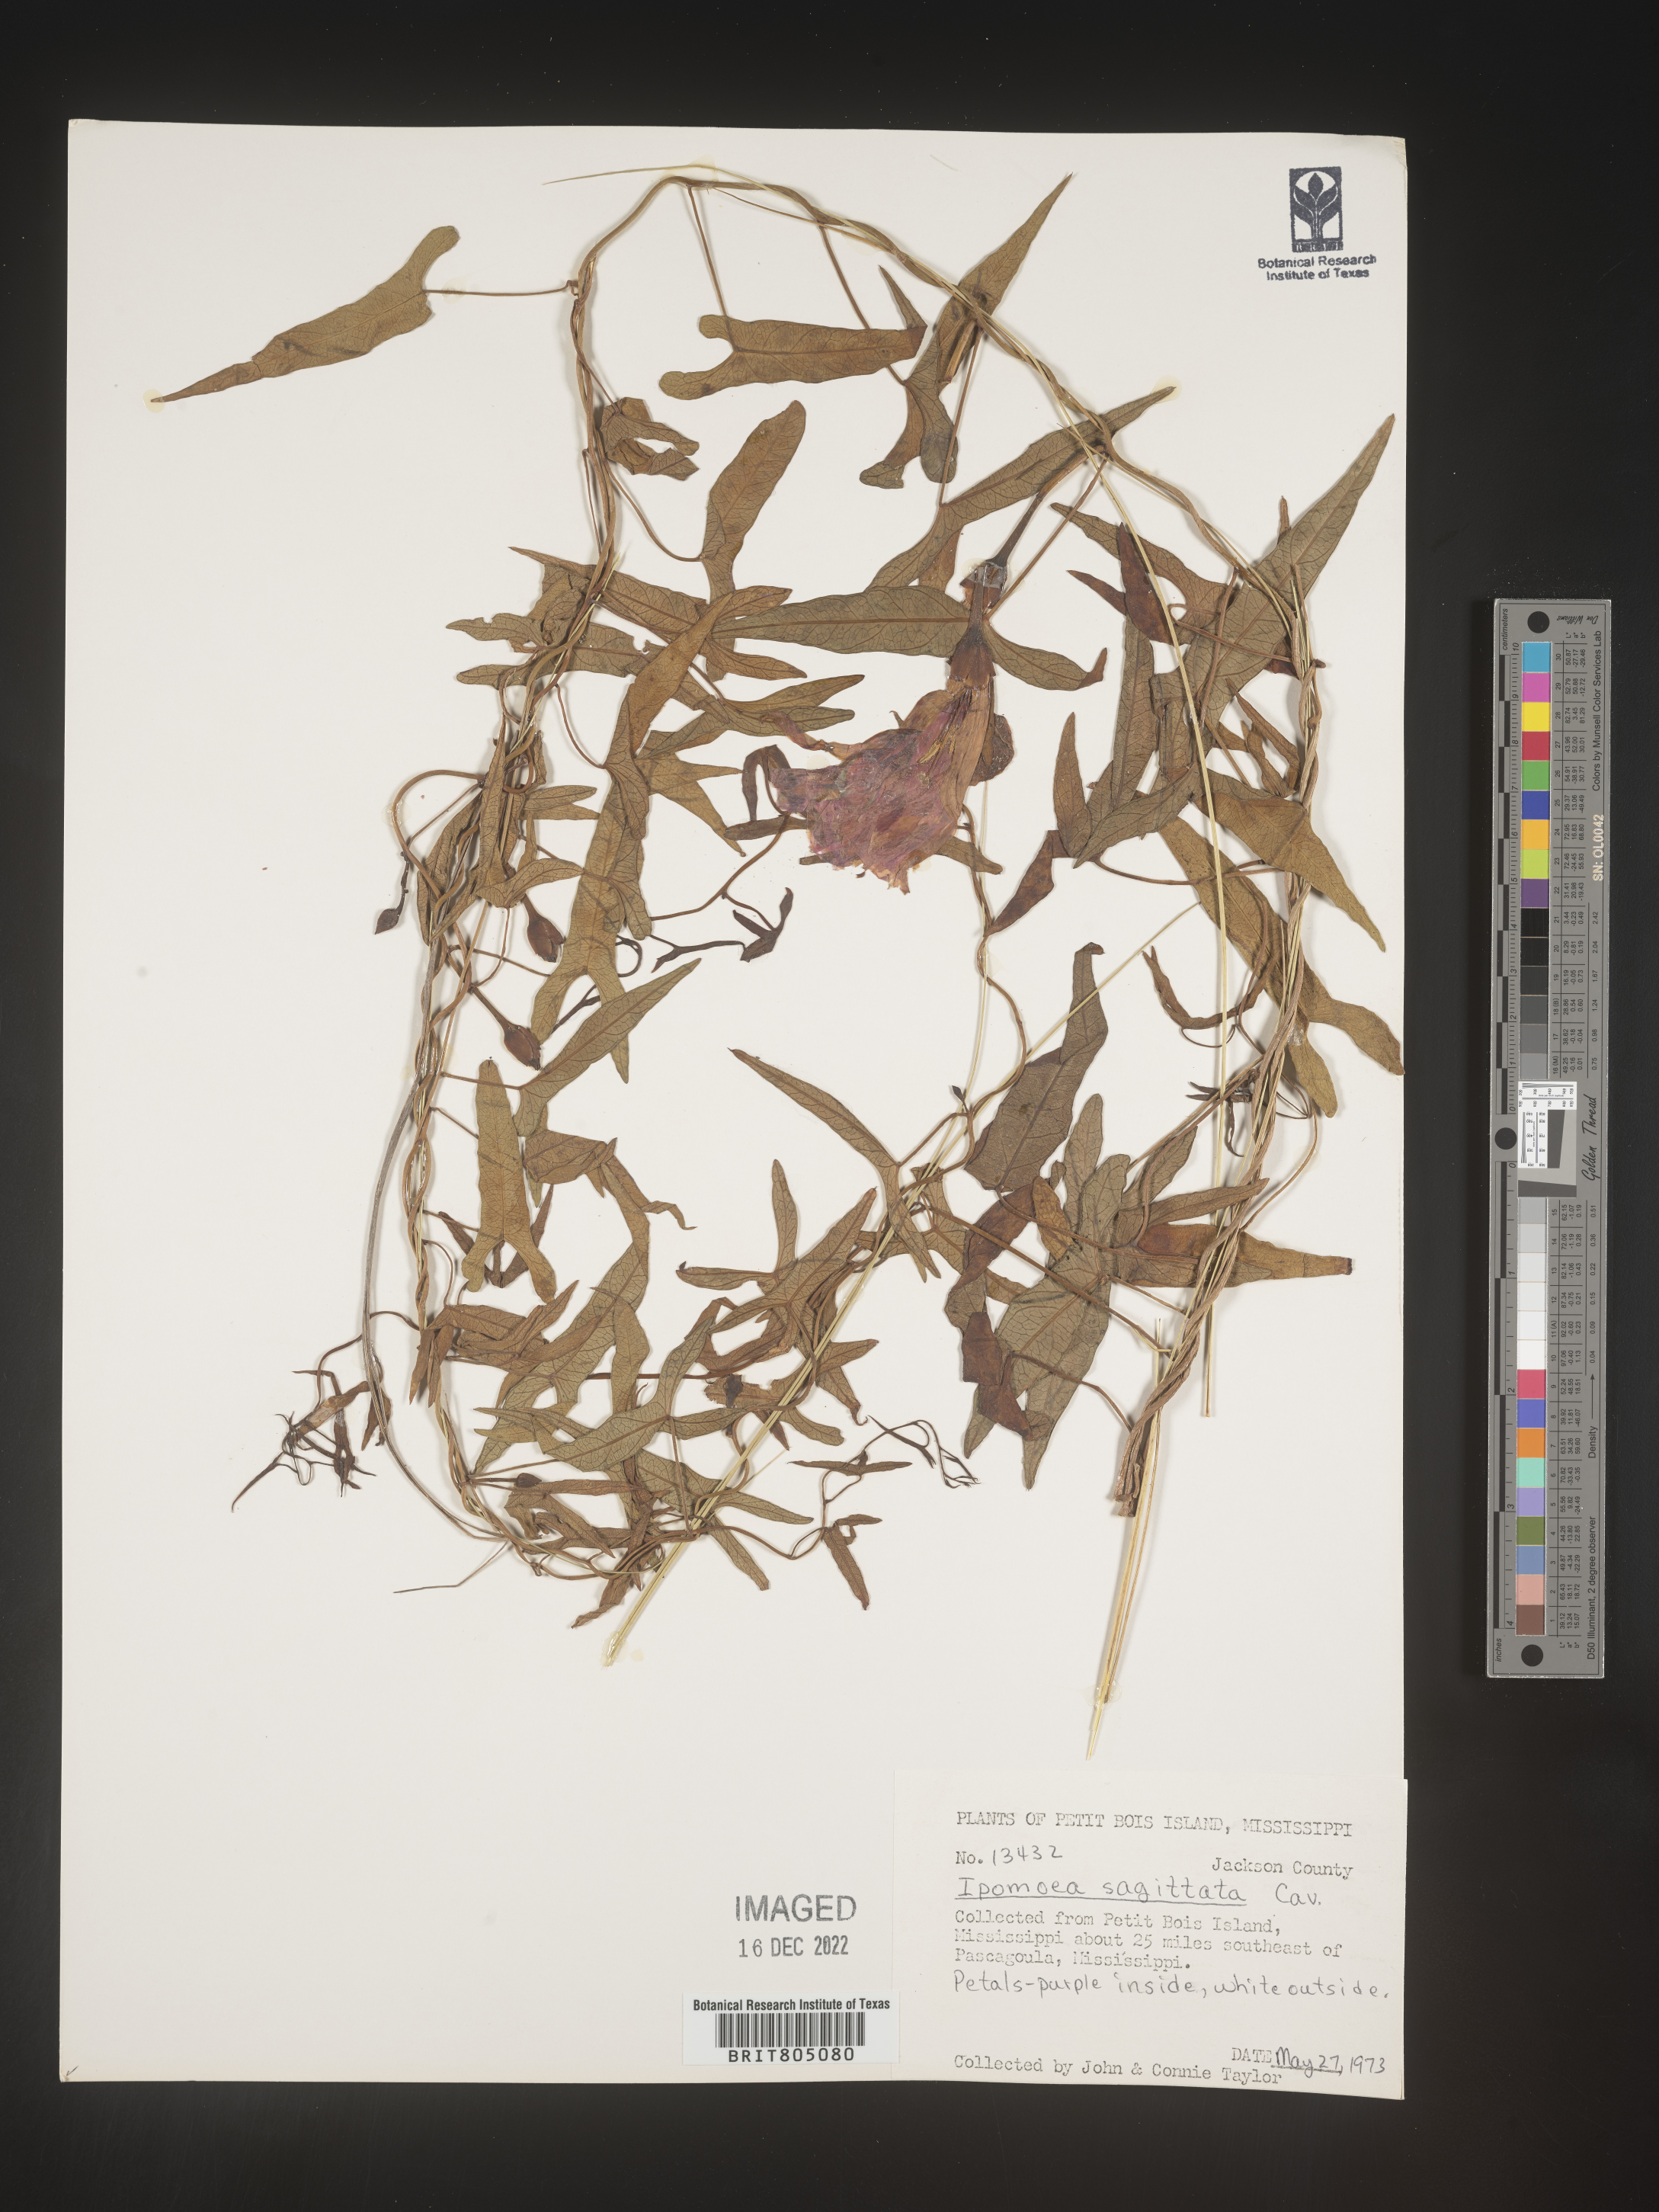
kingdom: Plantae
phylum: Tracheophyta
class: Magnoliopsida
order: Solanales
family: Convolvulaceae
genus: Ipomoea
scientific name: Ipomoea sinensis
